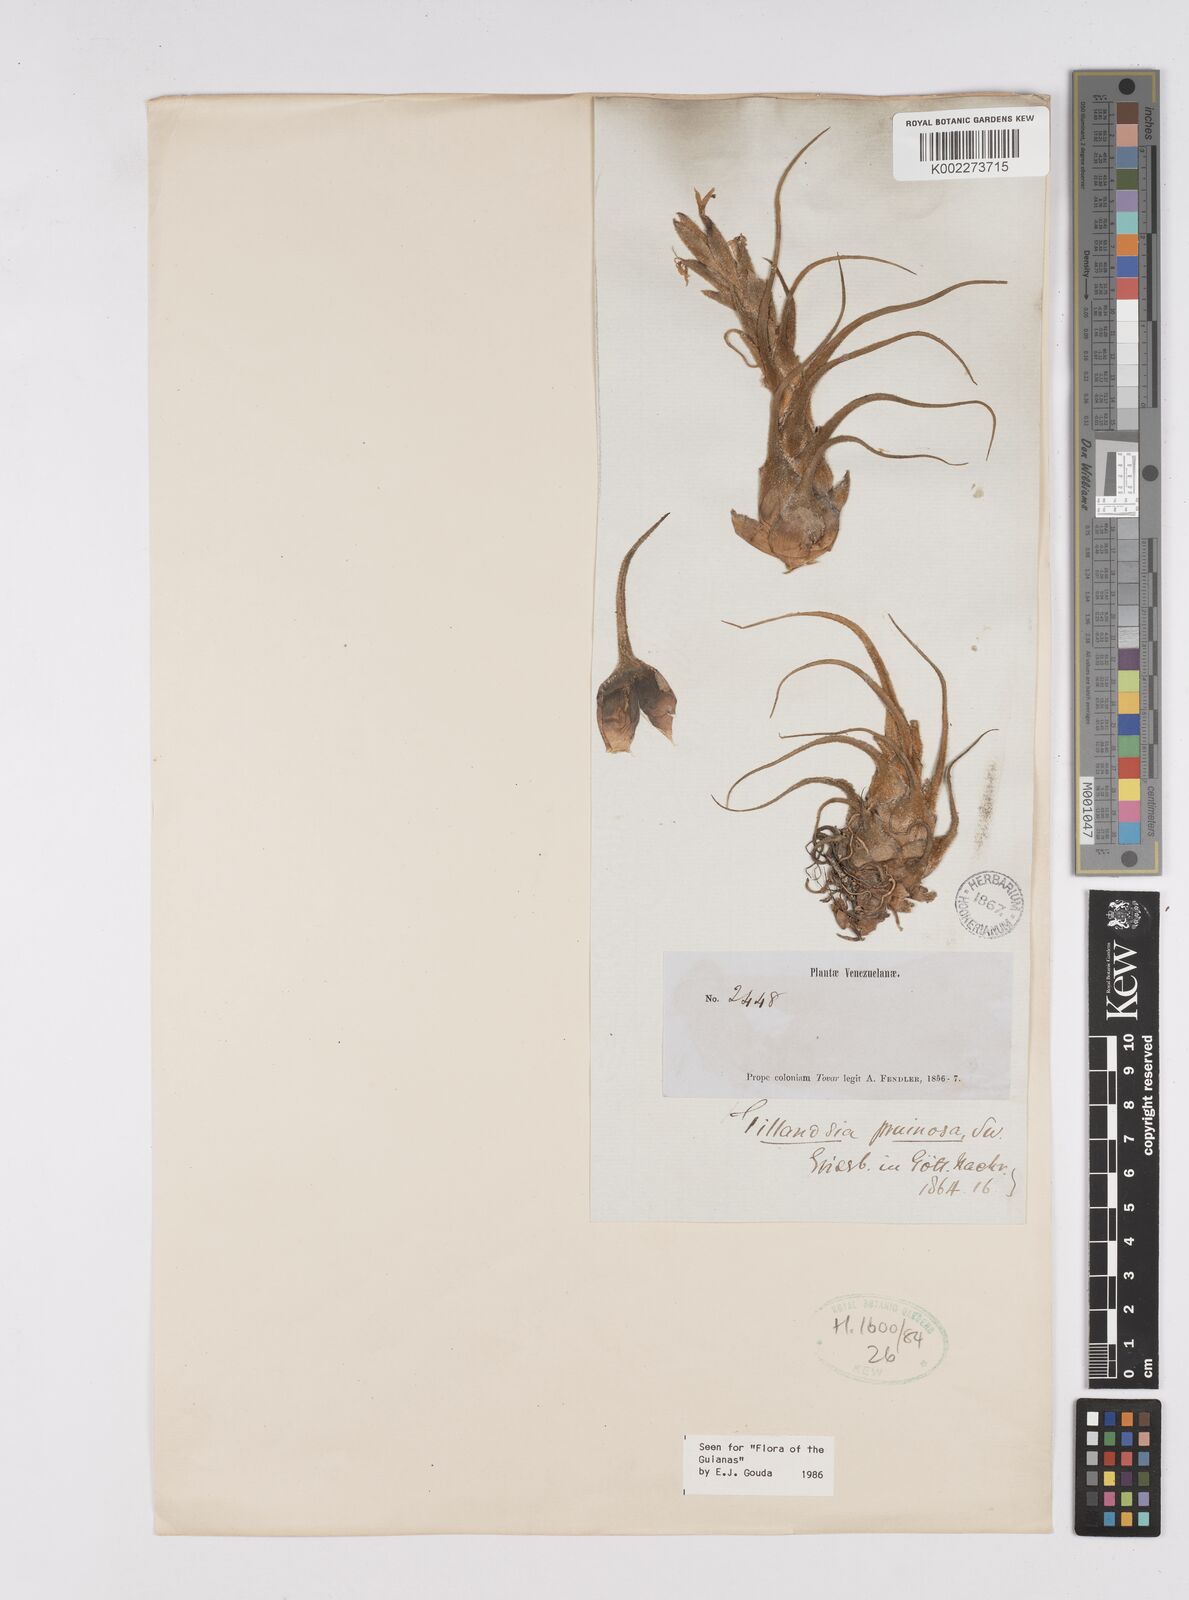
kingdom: Plantae
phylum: Tracheophyta
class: Liliopsida
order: Poales
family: Bromeliaceae
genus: Tillandsia
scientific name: Tillandsia pruinosa
